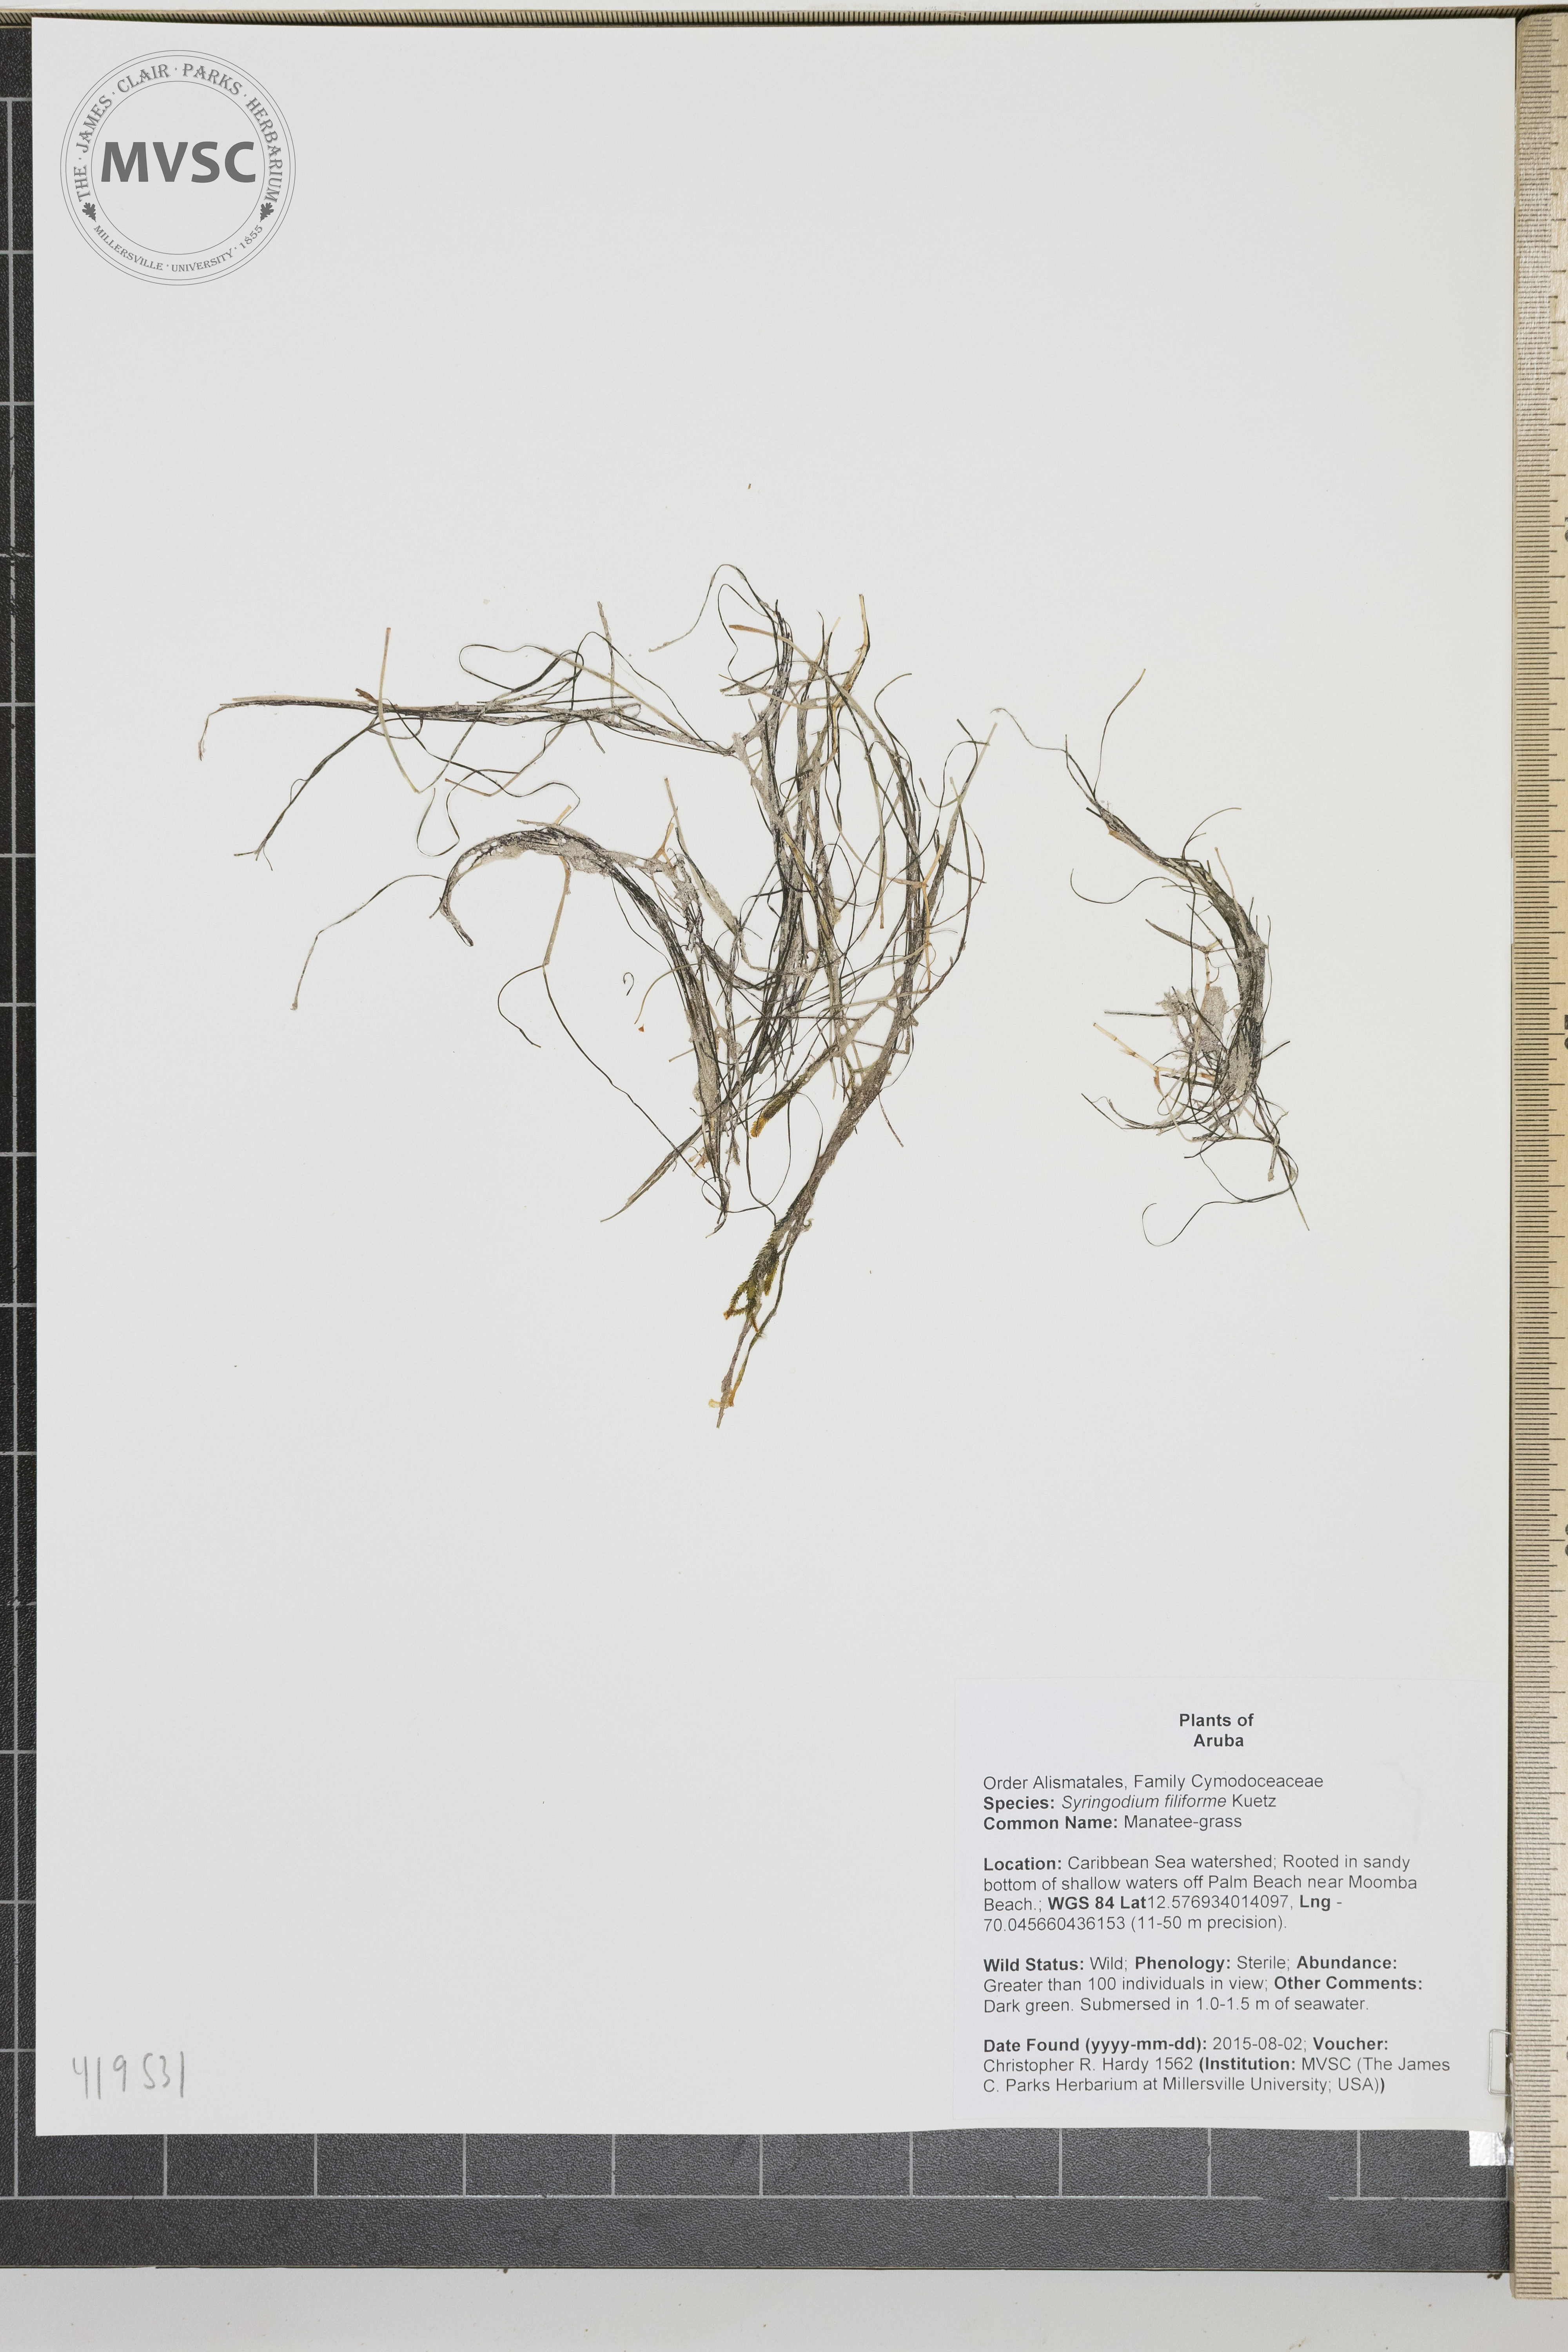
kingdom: Plantae
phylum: Tracheophyta
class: Liliopsida
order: Alismatales
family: Cymodoceaceae
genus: Syringodium
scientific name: Syringodium filiforme
